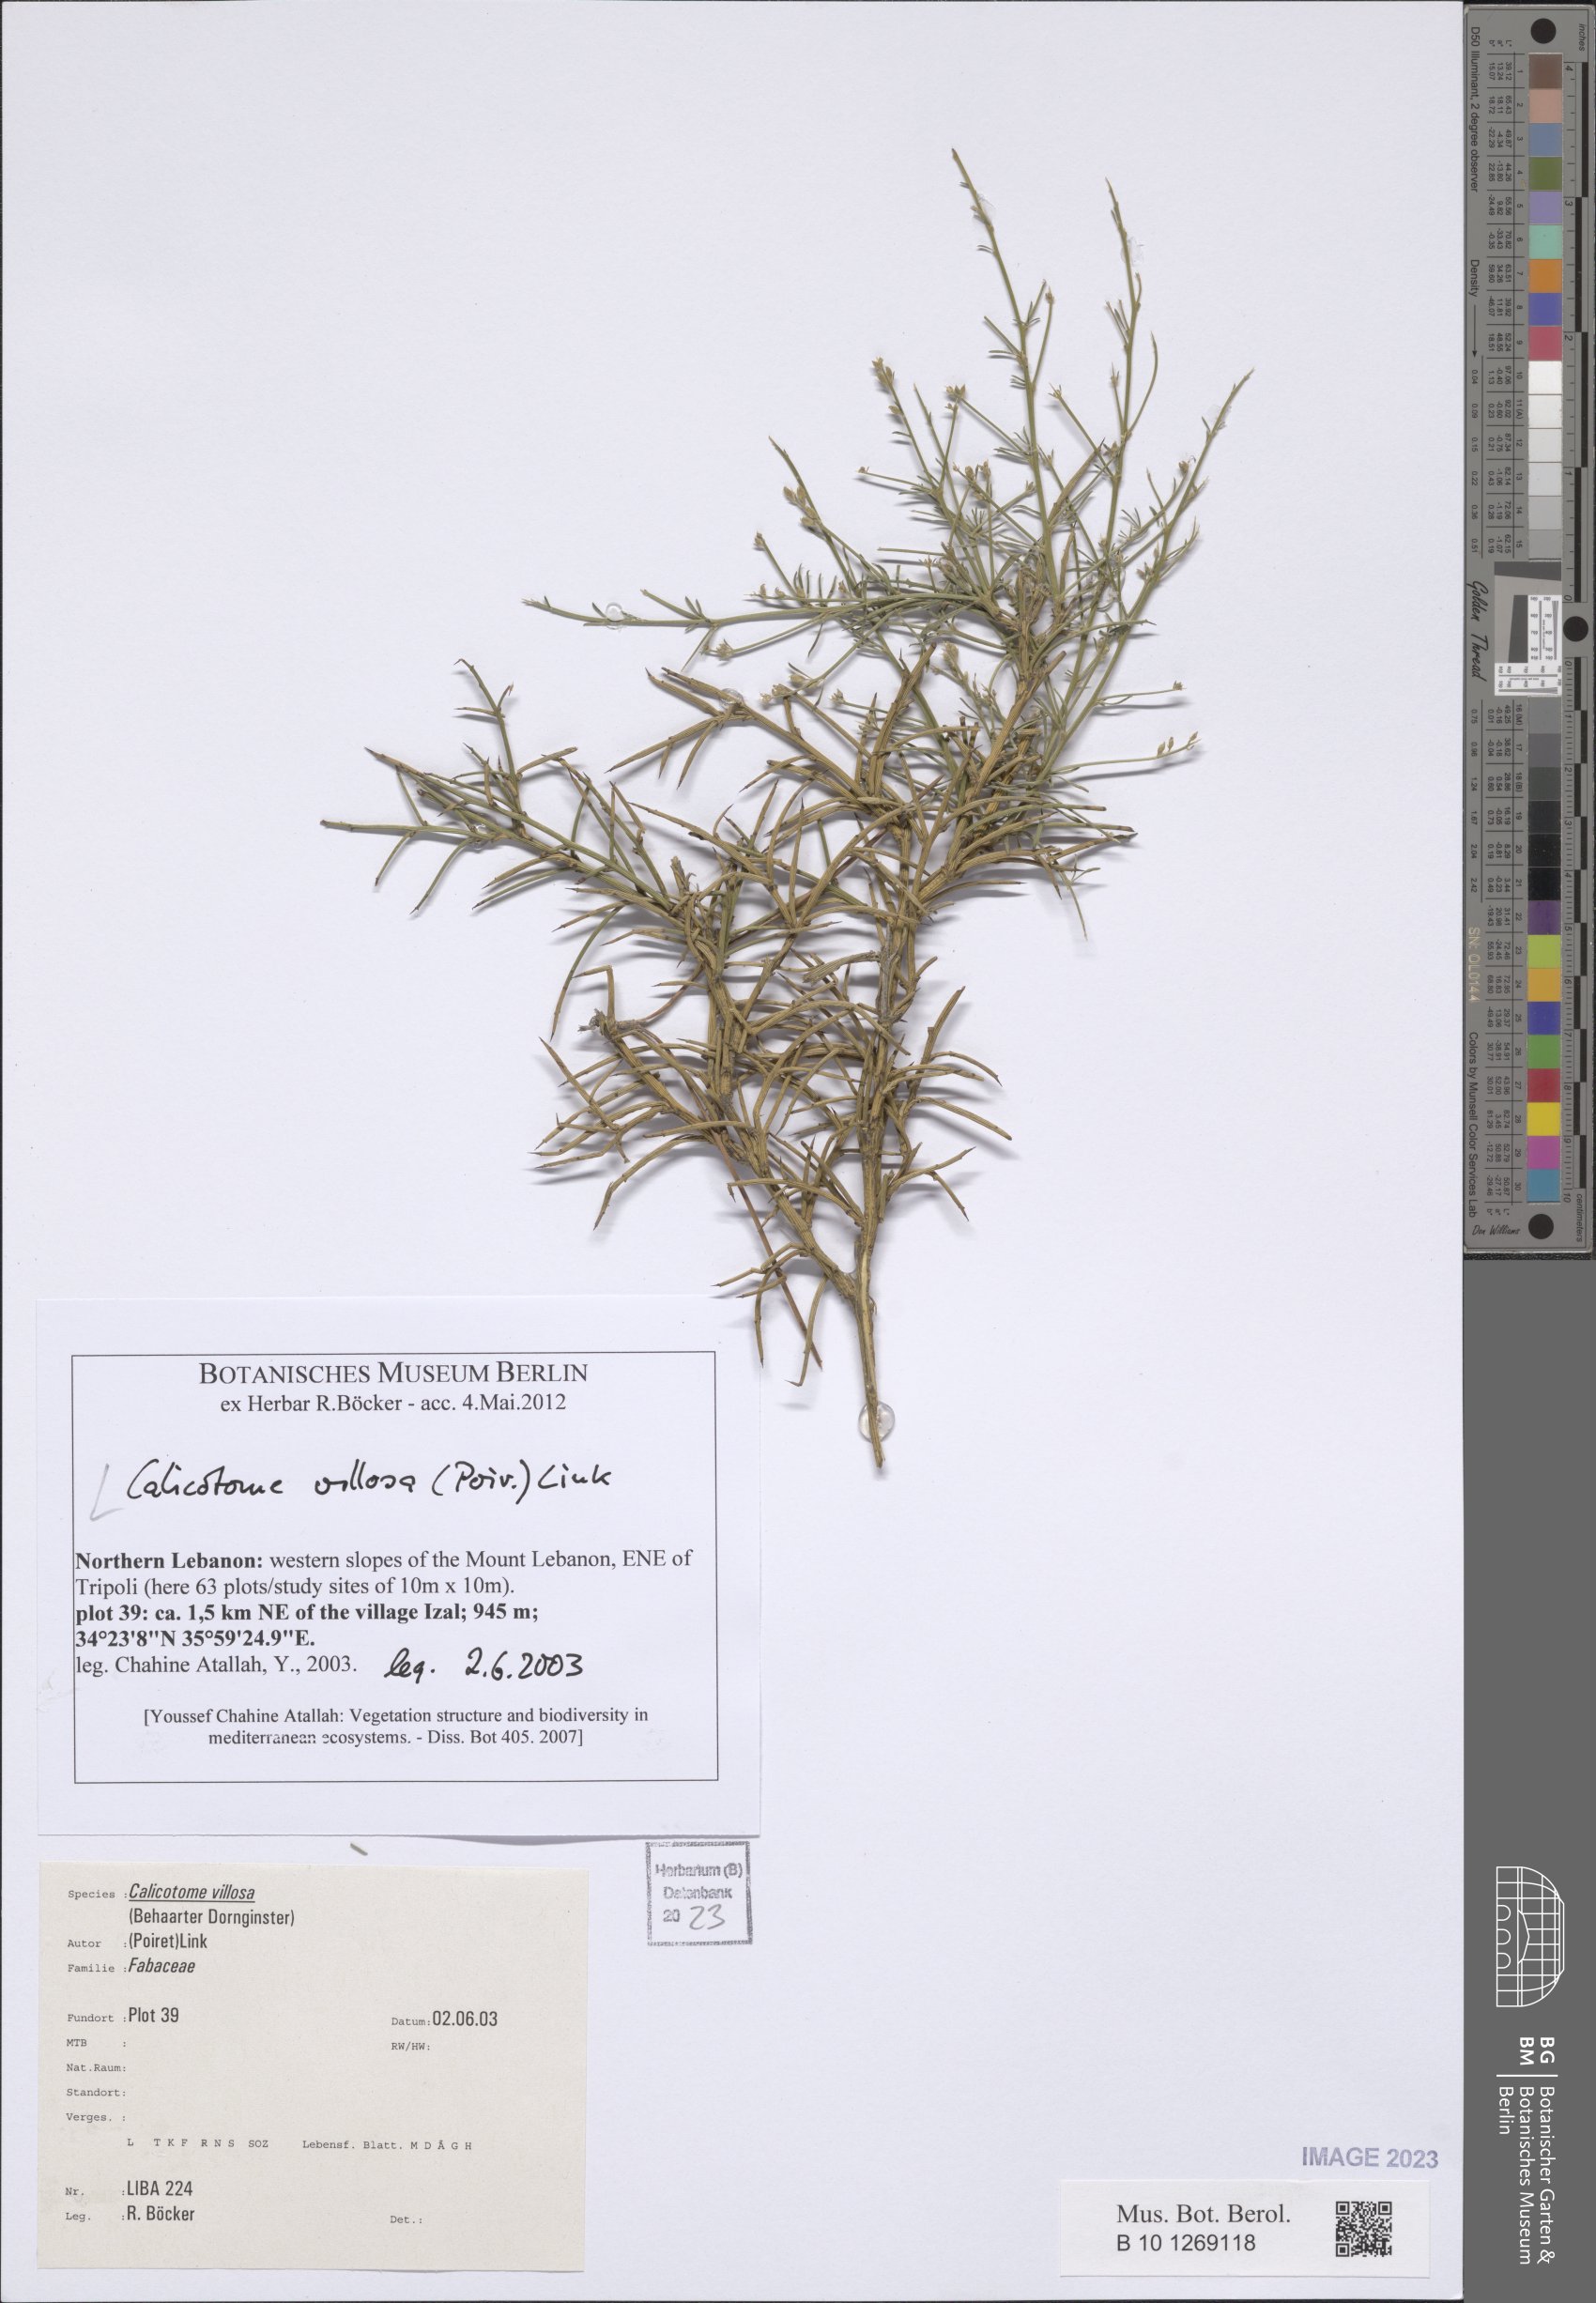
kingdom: Plantae
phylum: Tracheophyta
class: Magnoliopsida
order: Fabales
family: Fabaceae
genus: Calicotome
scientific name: Calicotome villosa
